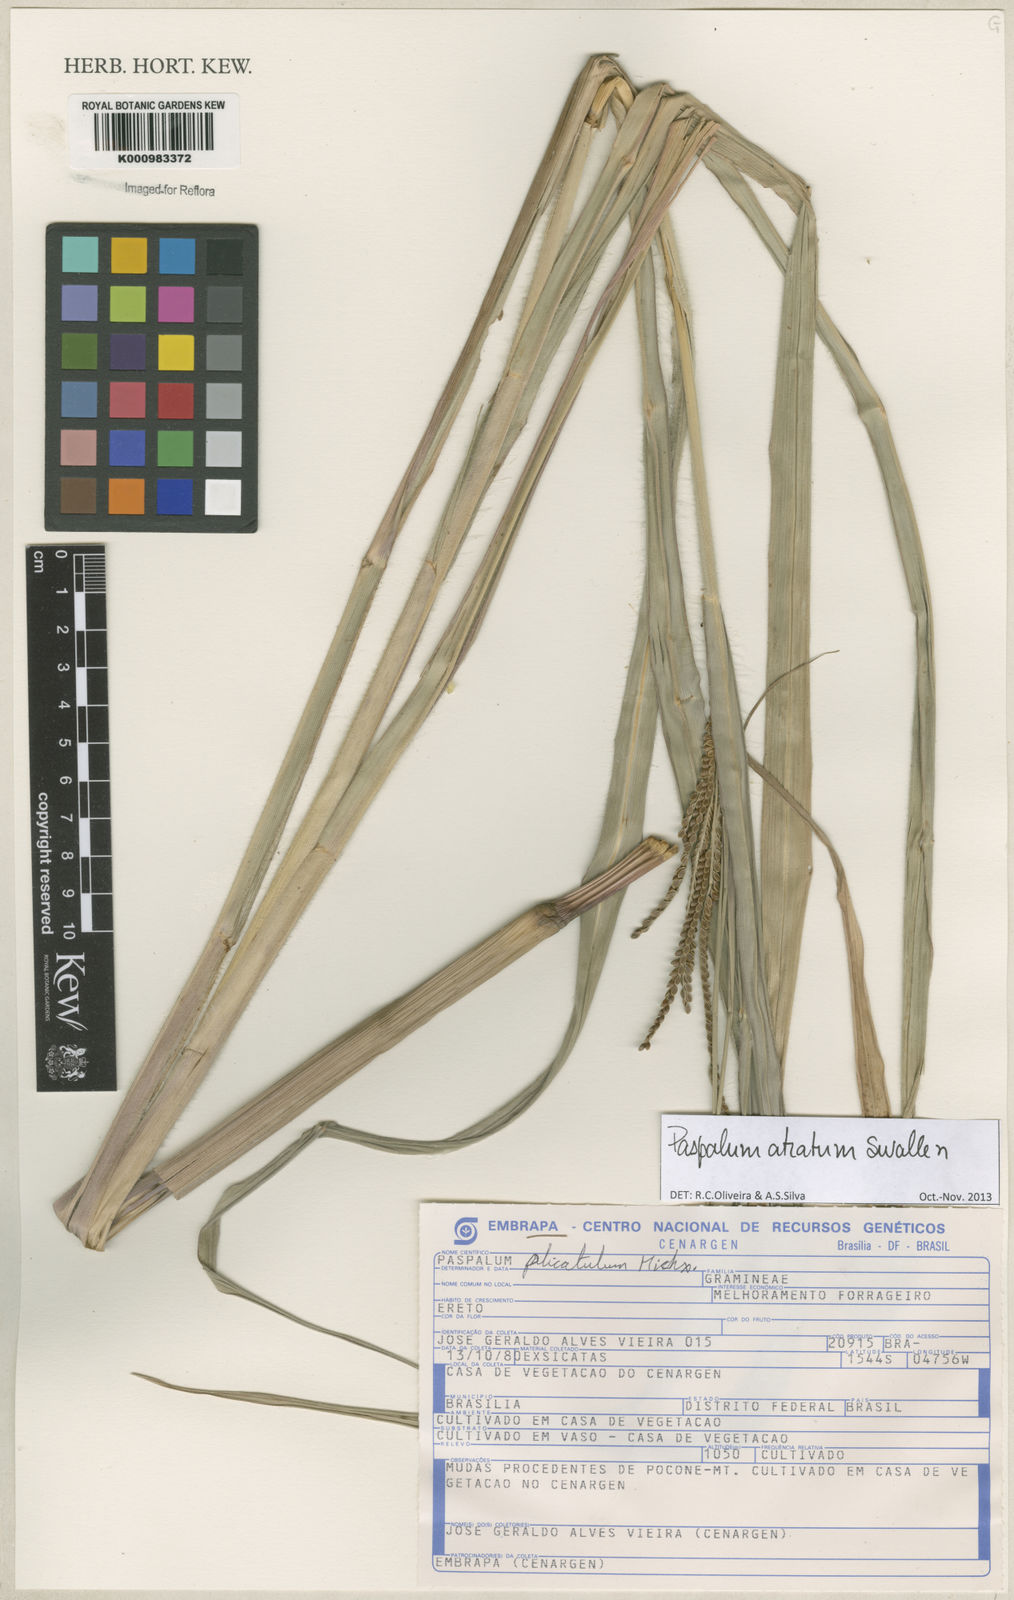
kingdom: Plantae
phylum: Tracheophyta
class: Liliopsida
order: Poales
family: Poaceae
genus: Paspalum
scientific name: Paspalum atratum
